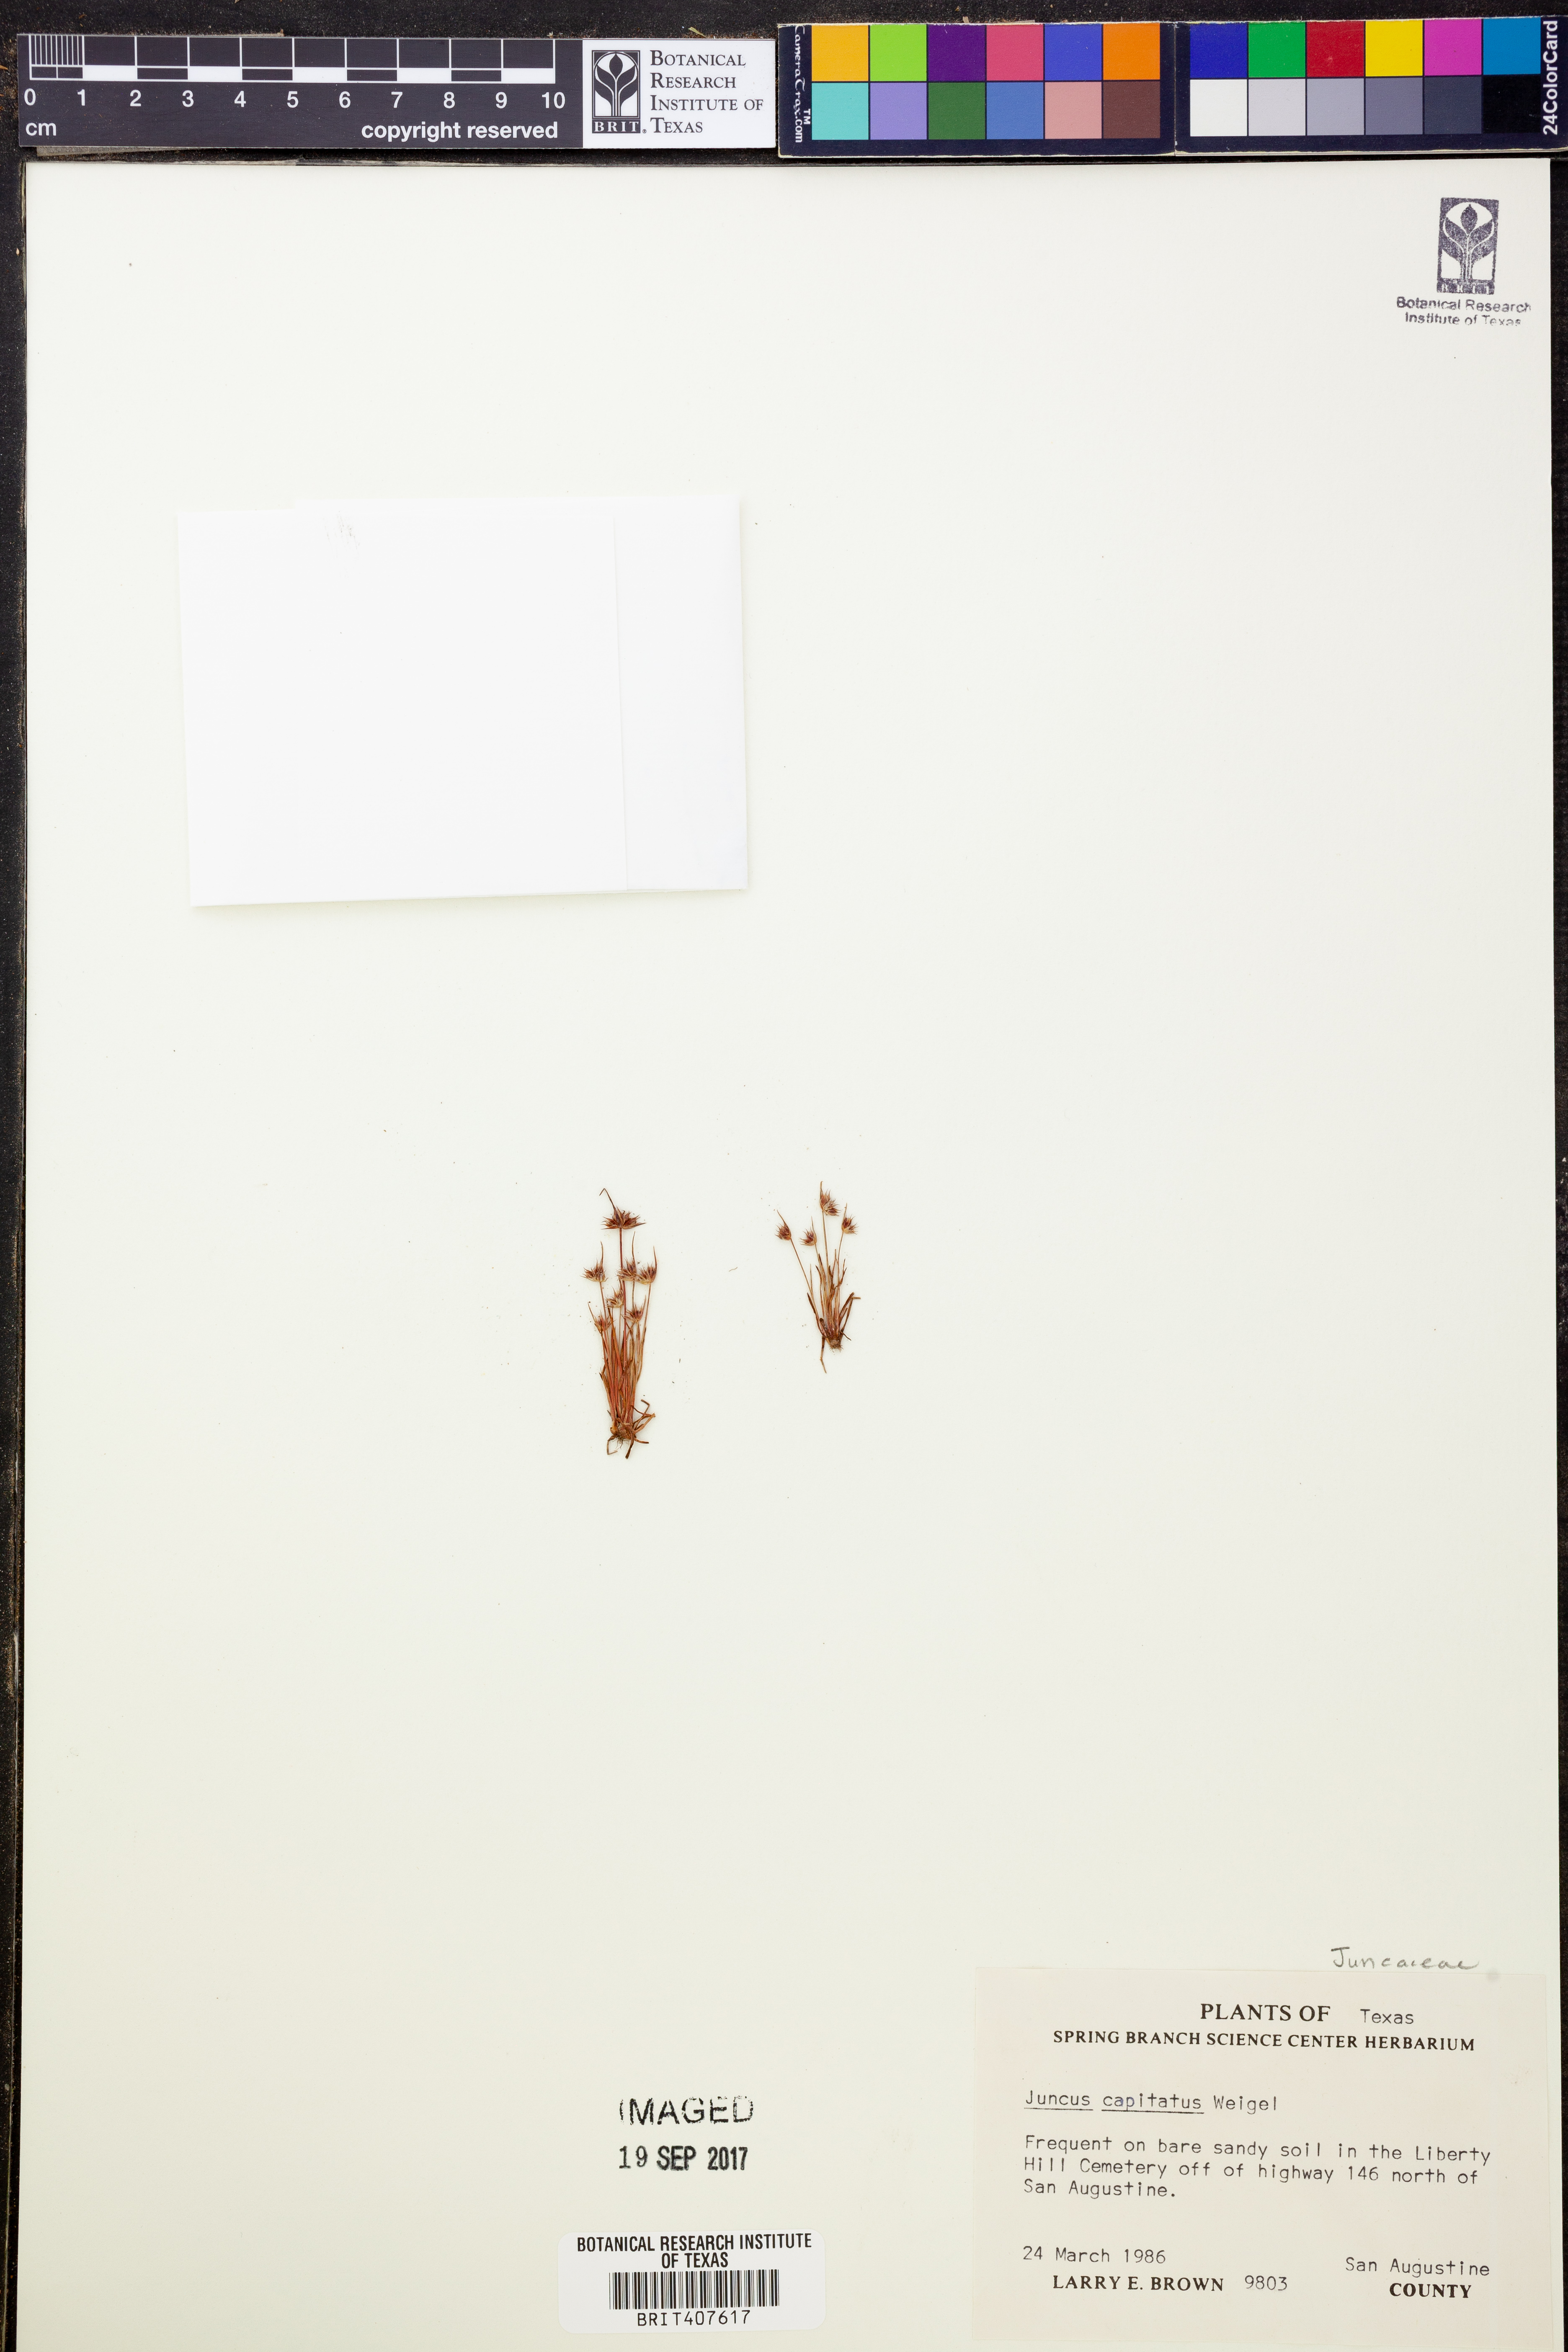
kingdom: Plantae
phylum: Tracheophyta
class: Liliopsida
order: Poales
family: Juncaceae
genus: Juncus
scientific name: Juncus capitatus
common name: Dwarf rush
